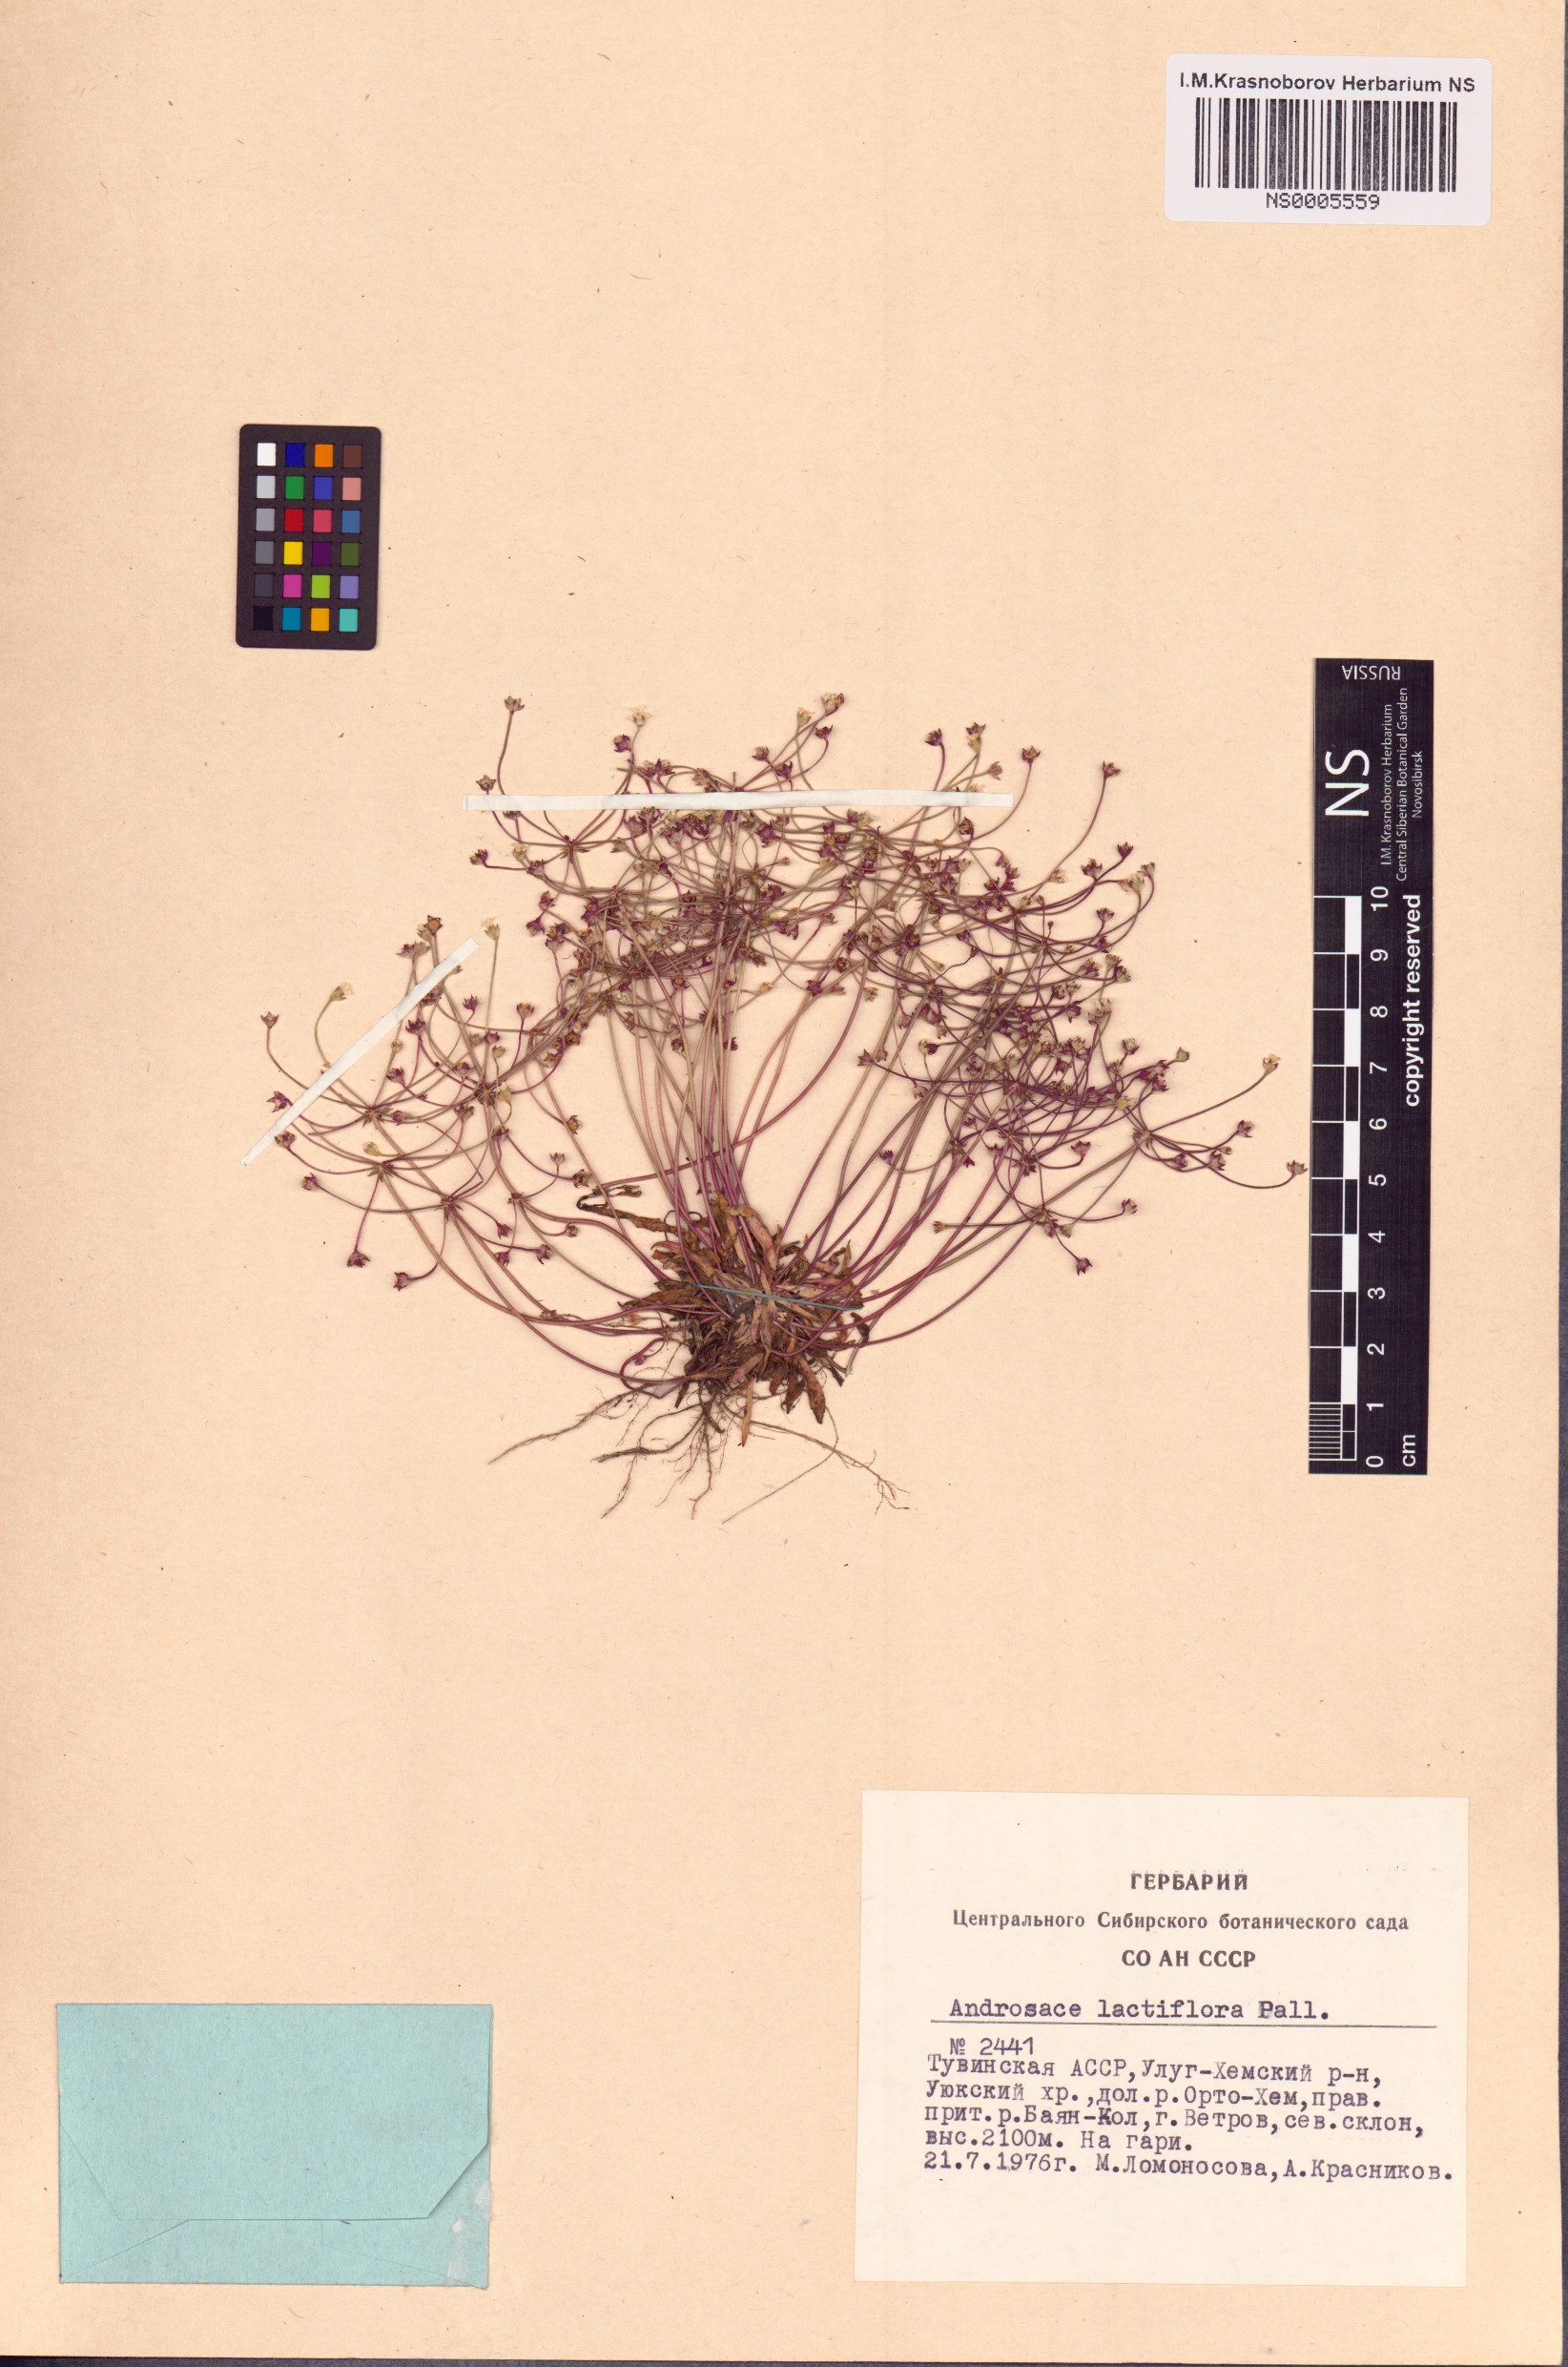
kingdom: Plantae
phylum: Tracheophyta
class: Magnoliopsida
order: Ericales
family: Primulaceae
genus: Androsace
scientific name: Androsace lactiflora
